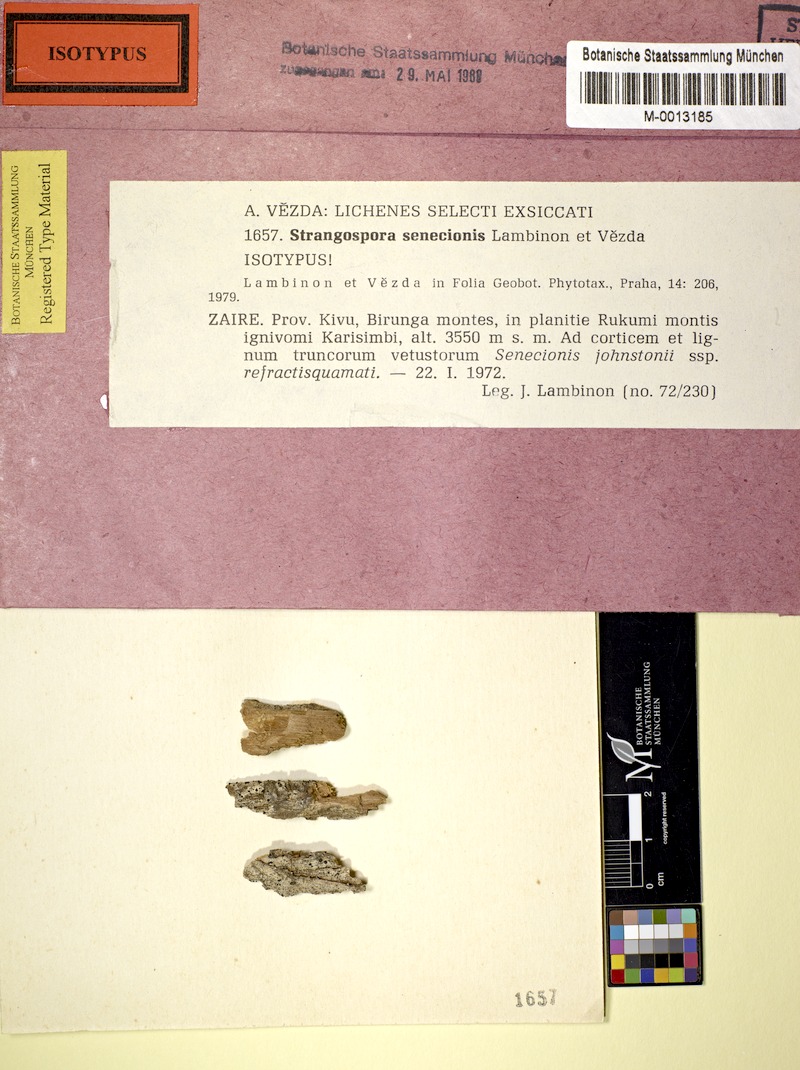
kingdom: Fungi
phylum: Ascomycota
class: Lecanoromycetes
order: Lecanorales
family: Strangosporaceae
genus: Strangospora
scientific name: Strangospora senecionis
